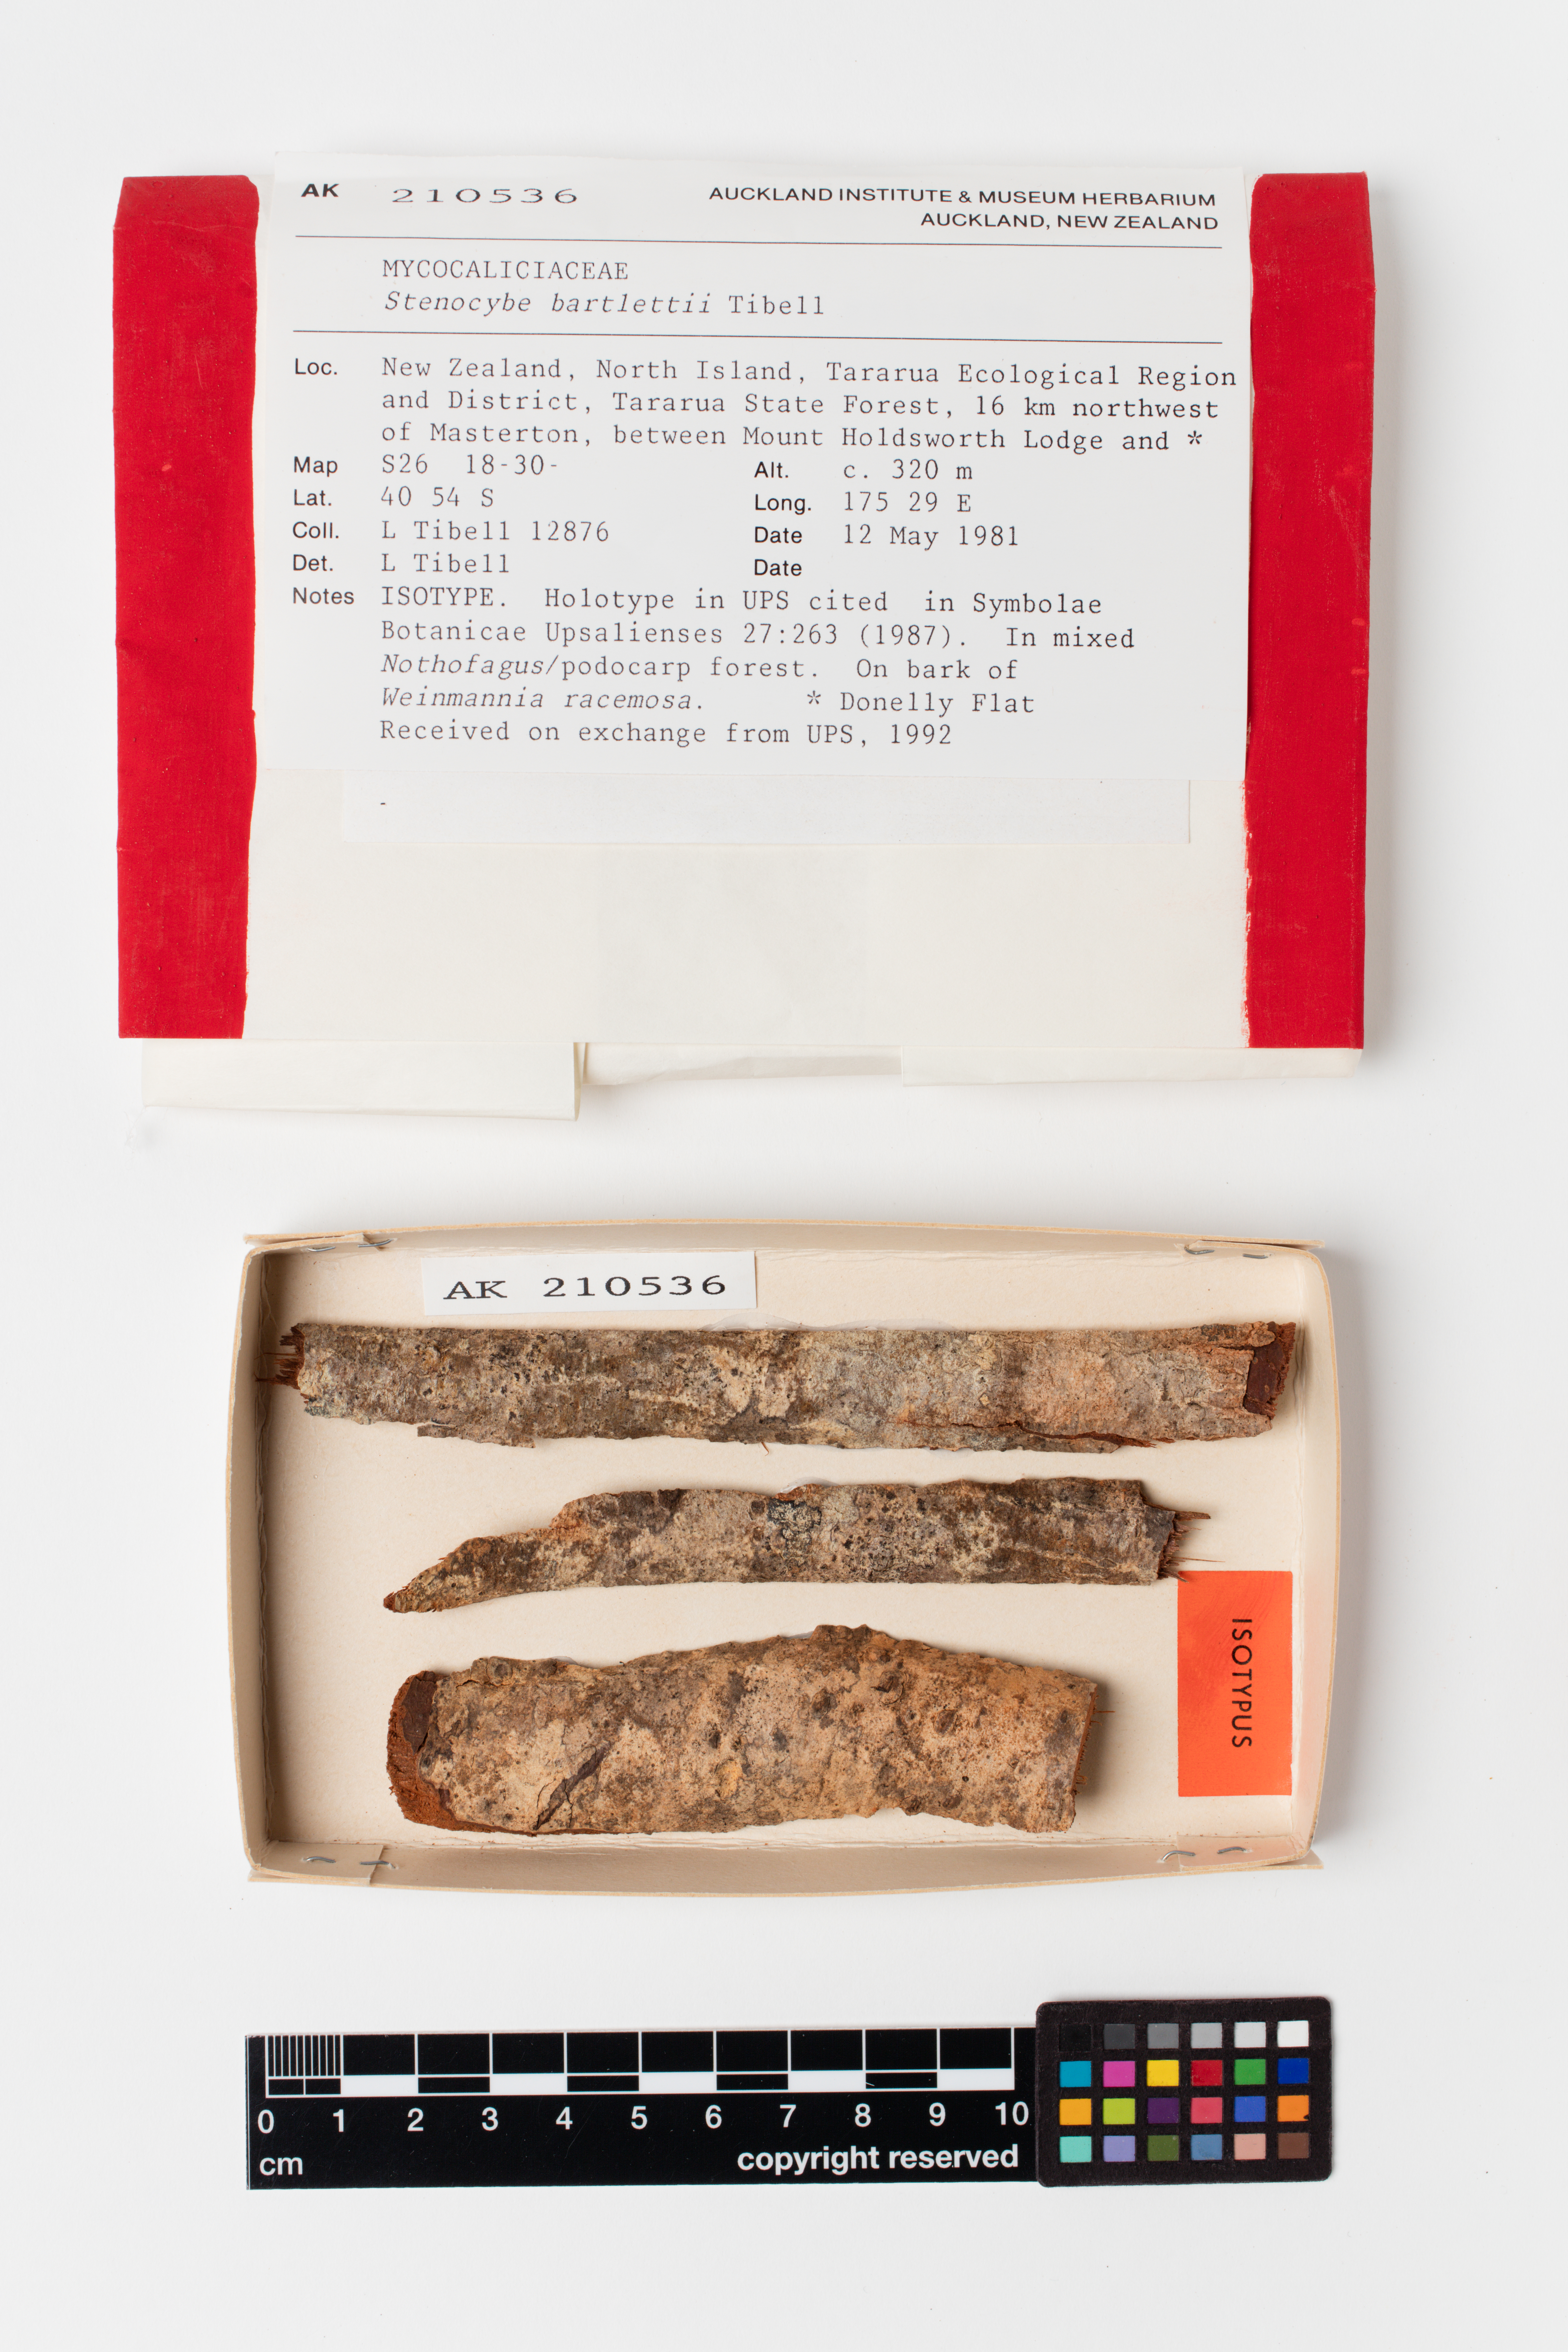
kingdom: Fungi
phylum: Ascomycota
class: Eurotiomycetes
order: Mycocaliciales
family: Mycocaliciaceae
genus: Stenocybe
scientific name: Stenocybe bartlettii
